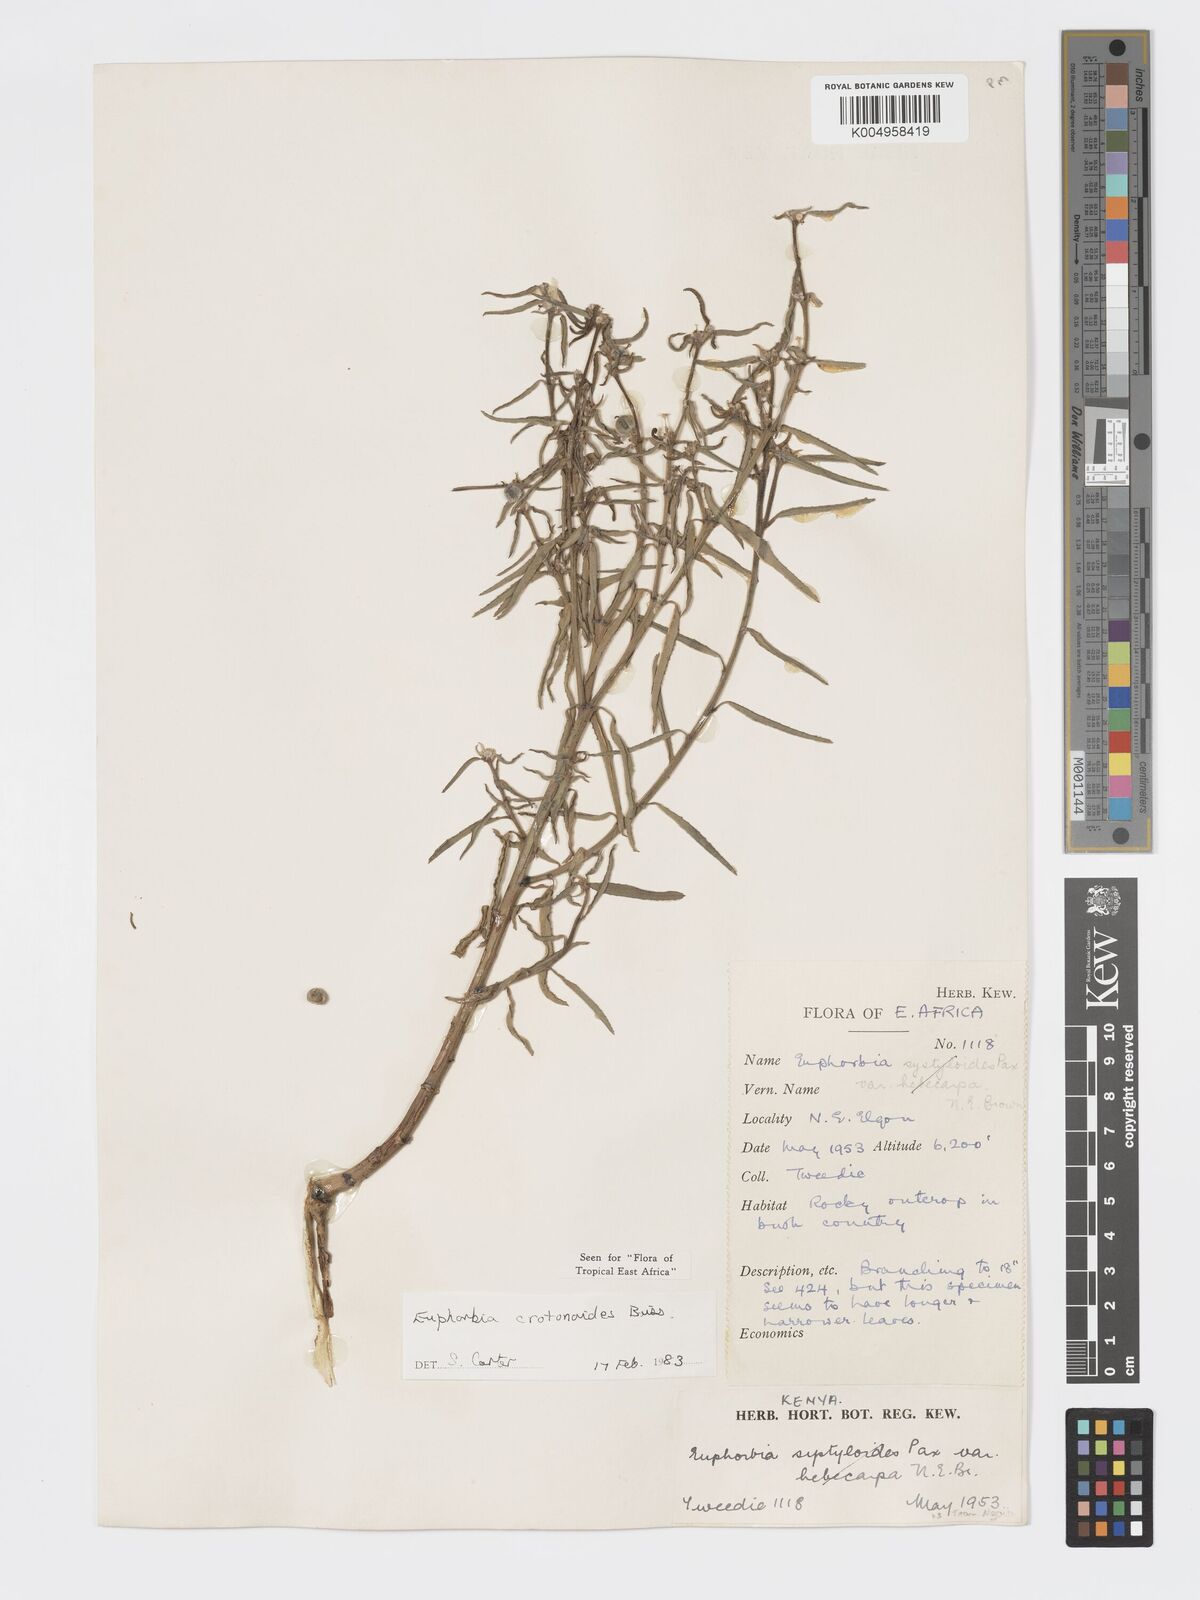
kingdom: Plantae
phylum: Tracheophyta
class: Magnoliopsida
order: Malpighiales
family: Euphorbiaceae
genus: Euphorbia
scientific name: Euphorbia crotonoides
